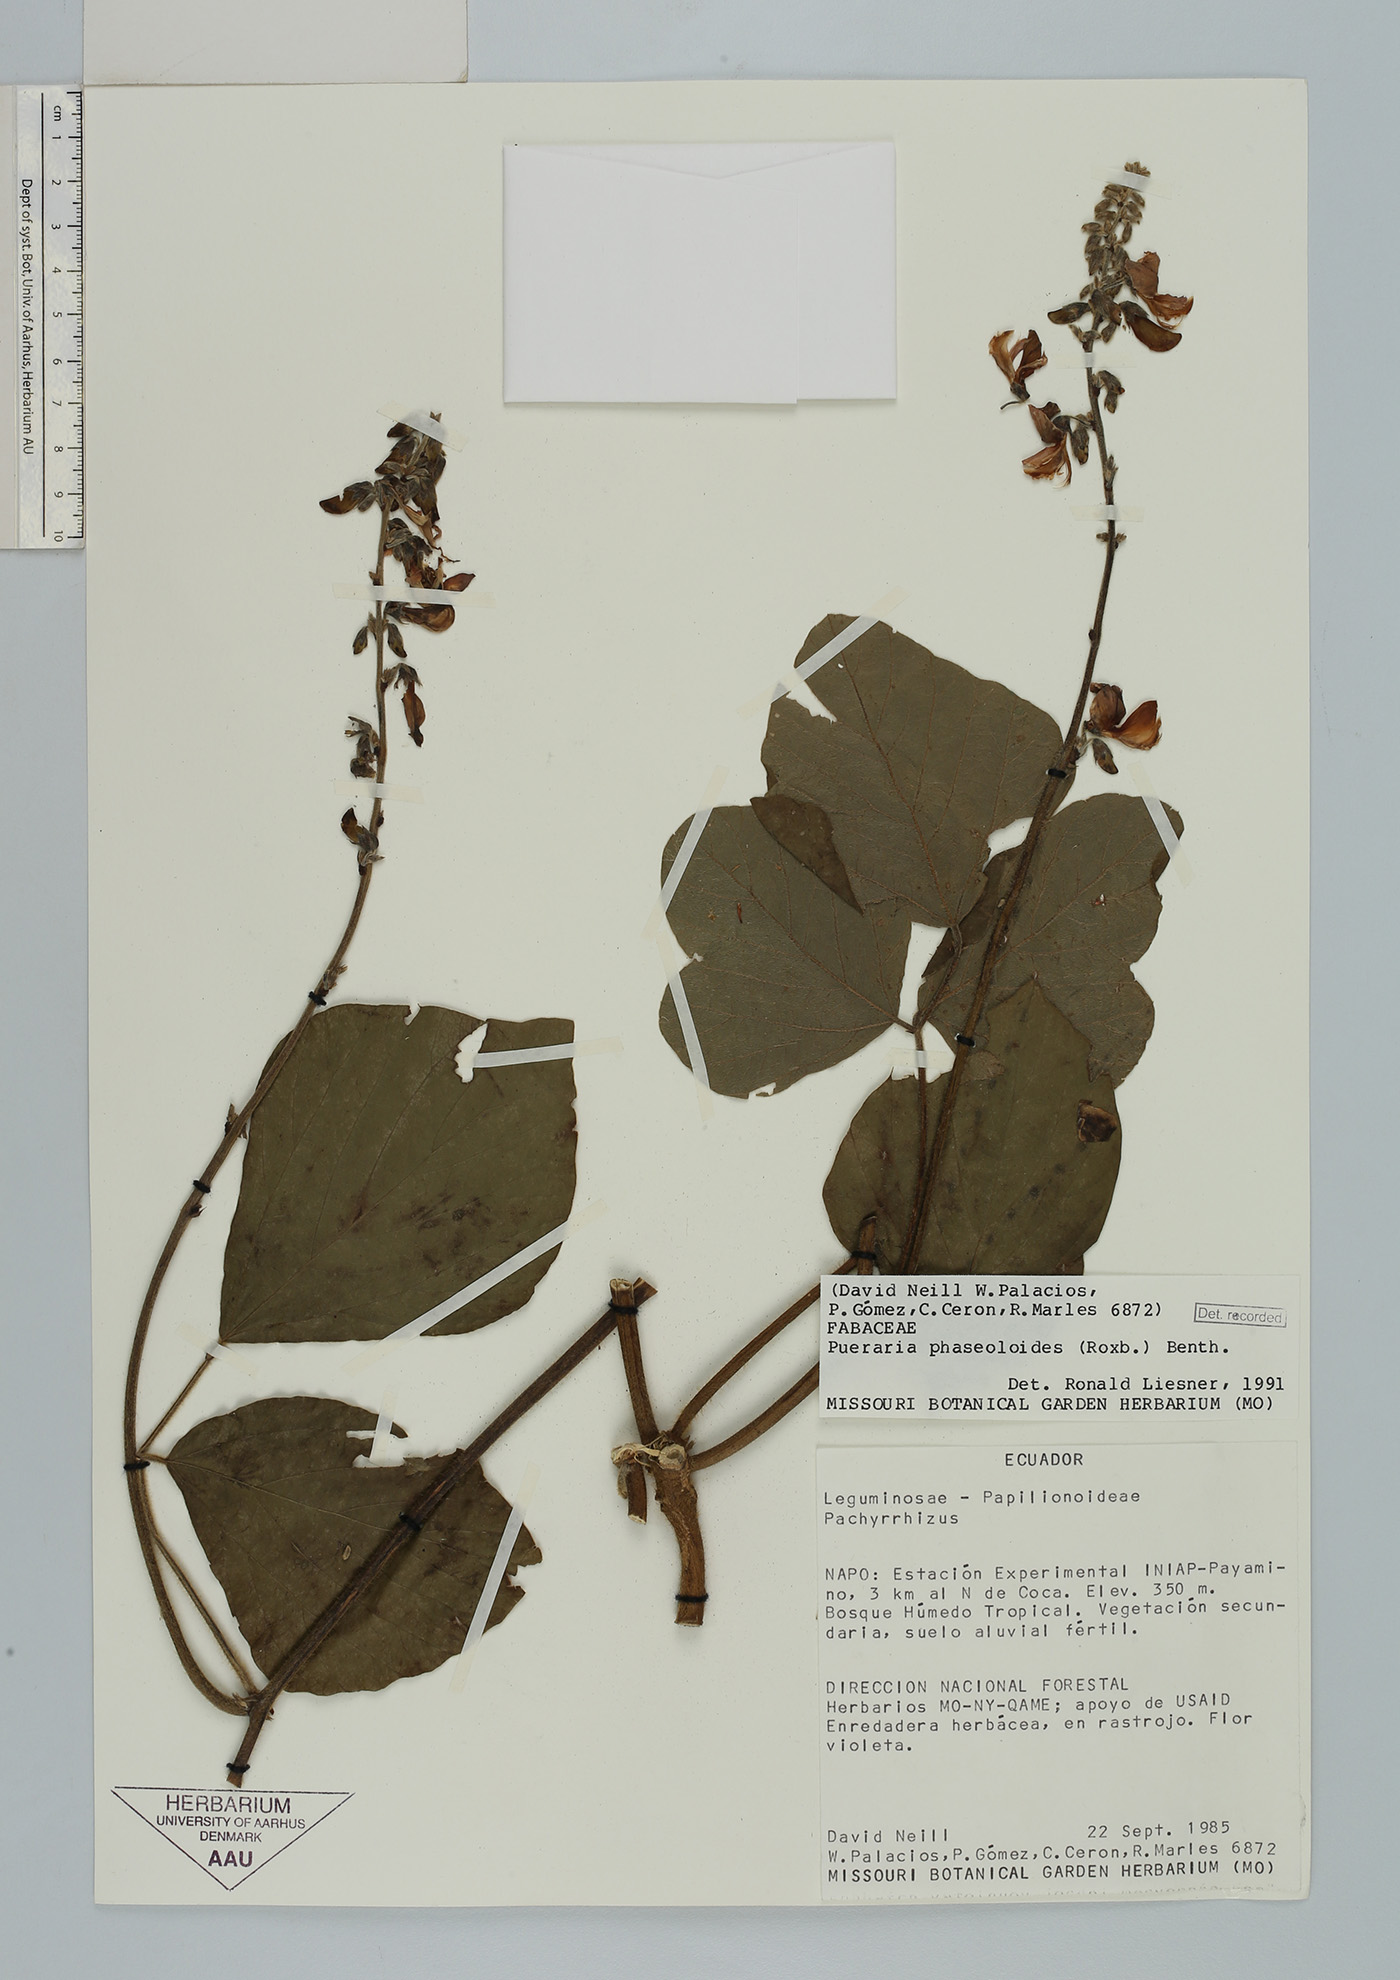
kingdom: Plantae
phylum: Tracheophyta
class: Magnoliopsida
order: Fabales
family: Fabaceae
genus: Neustanthus
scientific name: Neustanthus phaseoloides
